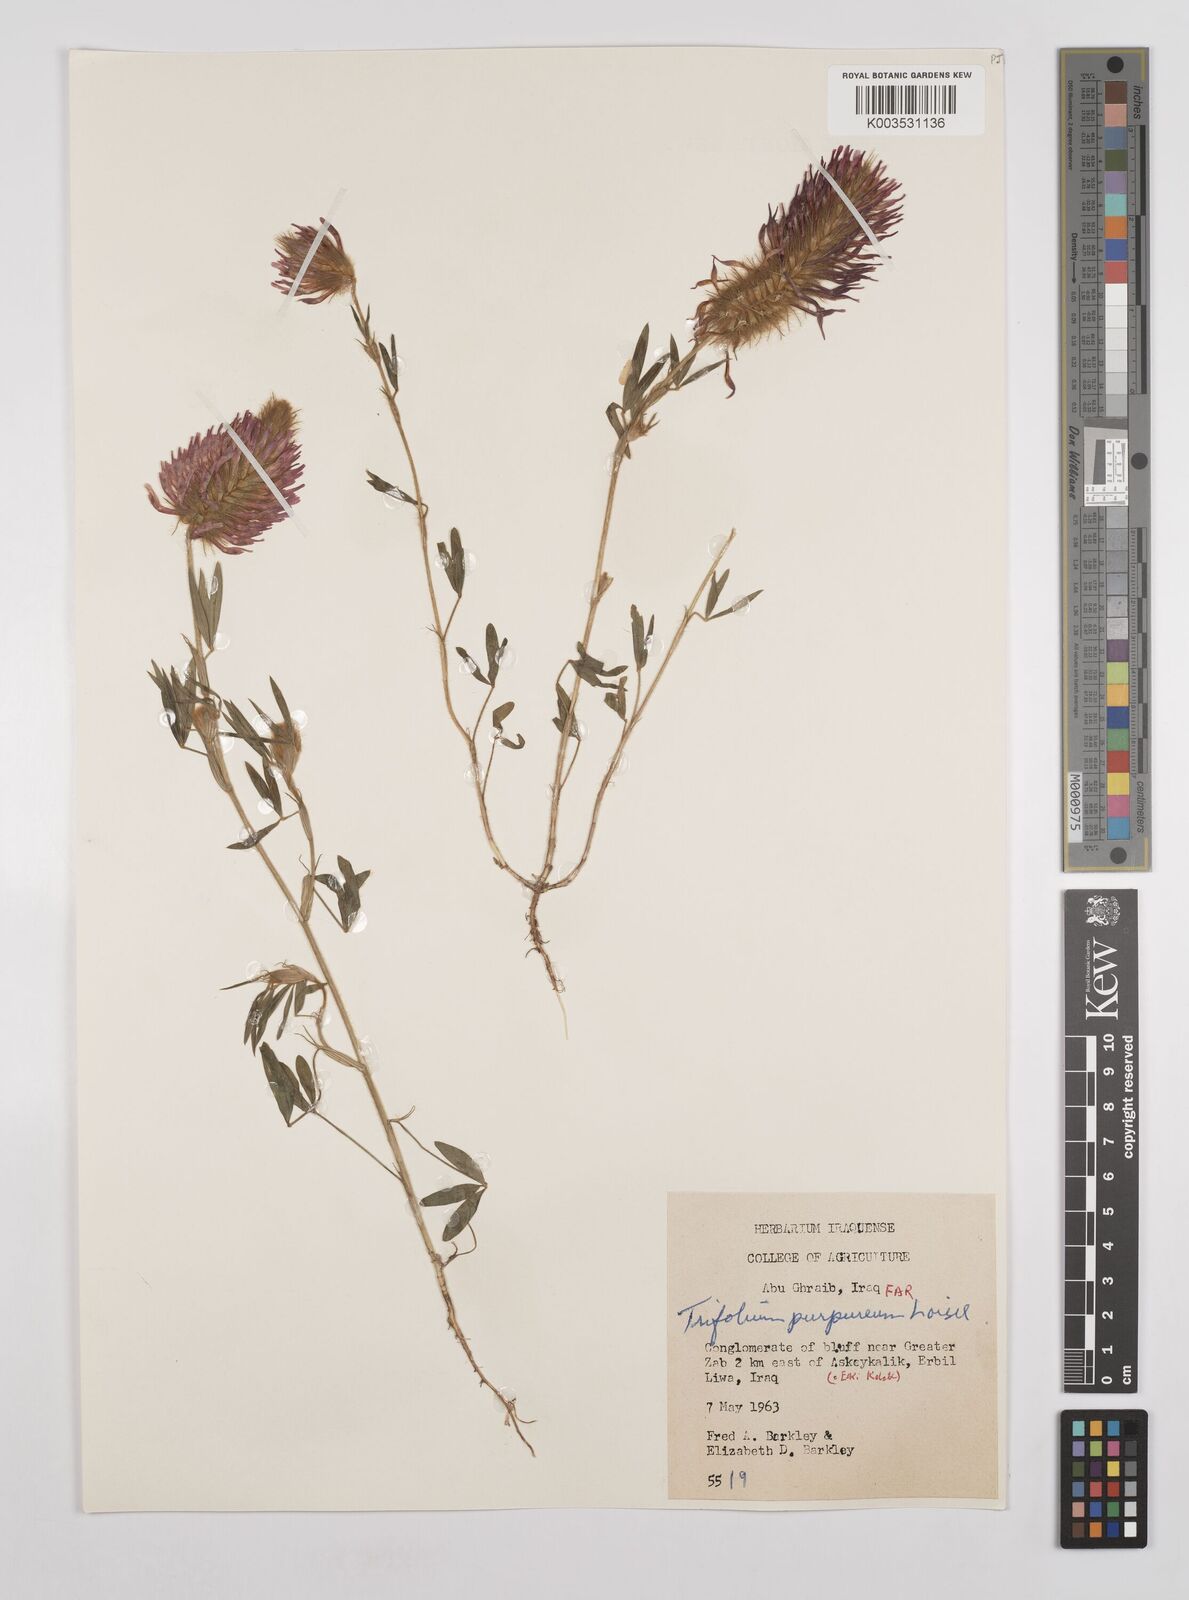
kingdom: Plantae
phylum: Tracheophyta
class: Magnoliopsida
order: Fabales
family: Fabaceae
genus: Trifolium
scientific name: Trifolium purpureum
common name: Purple clover
